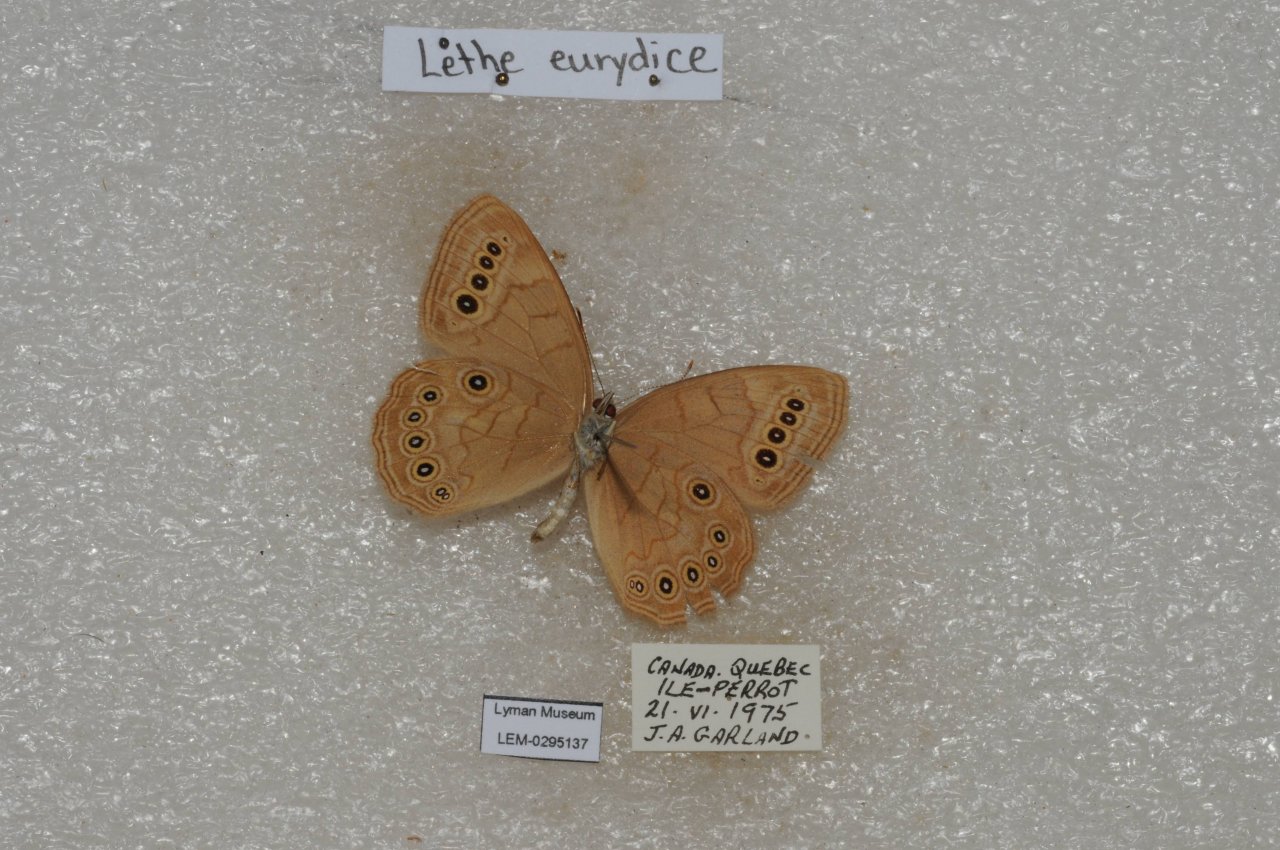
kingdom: Animalia
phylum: Arthropoda
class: Insecta
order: Lepidoptera
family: Nymphalidae
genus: Lethe
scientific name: Lethe eurydice
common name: Eyed Brown
